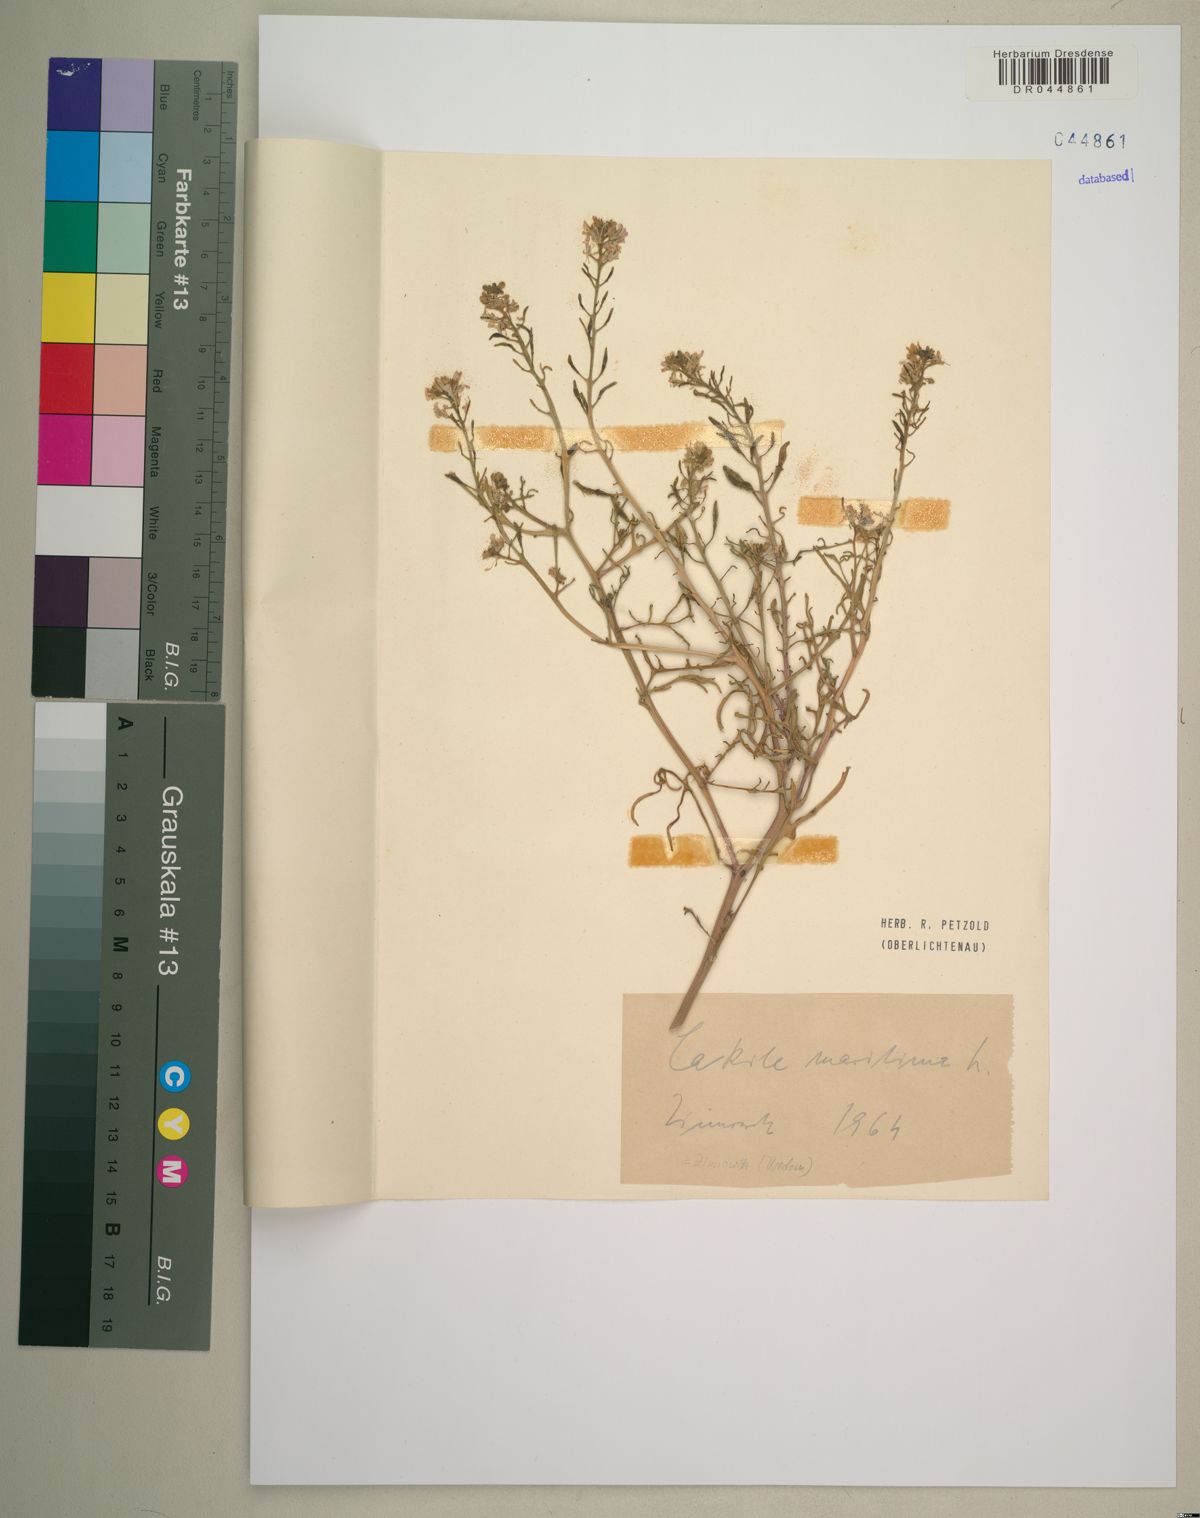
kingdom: Plantae
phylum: Tracheophyta
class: Magnoliopsida
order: Brassicales
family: Brassicaceae
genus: Cakile
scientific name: Cakile maritima
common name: Sea rocket
